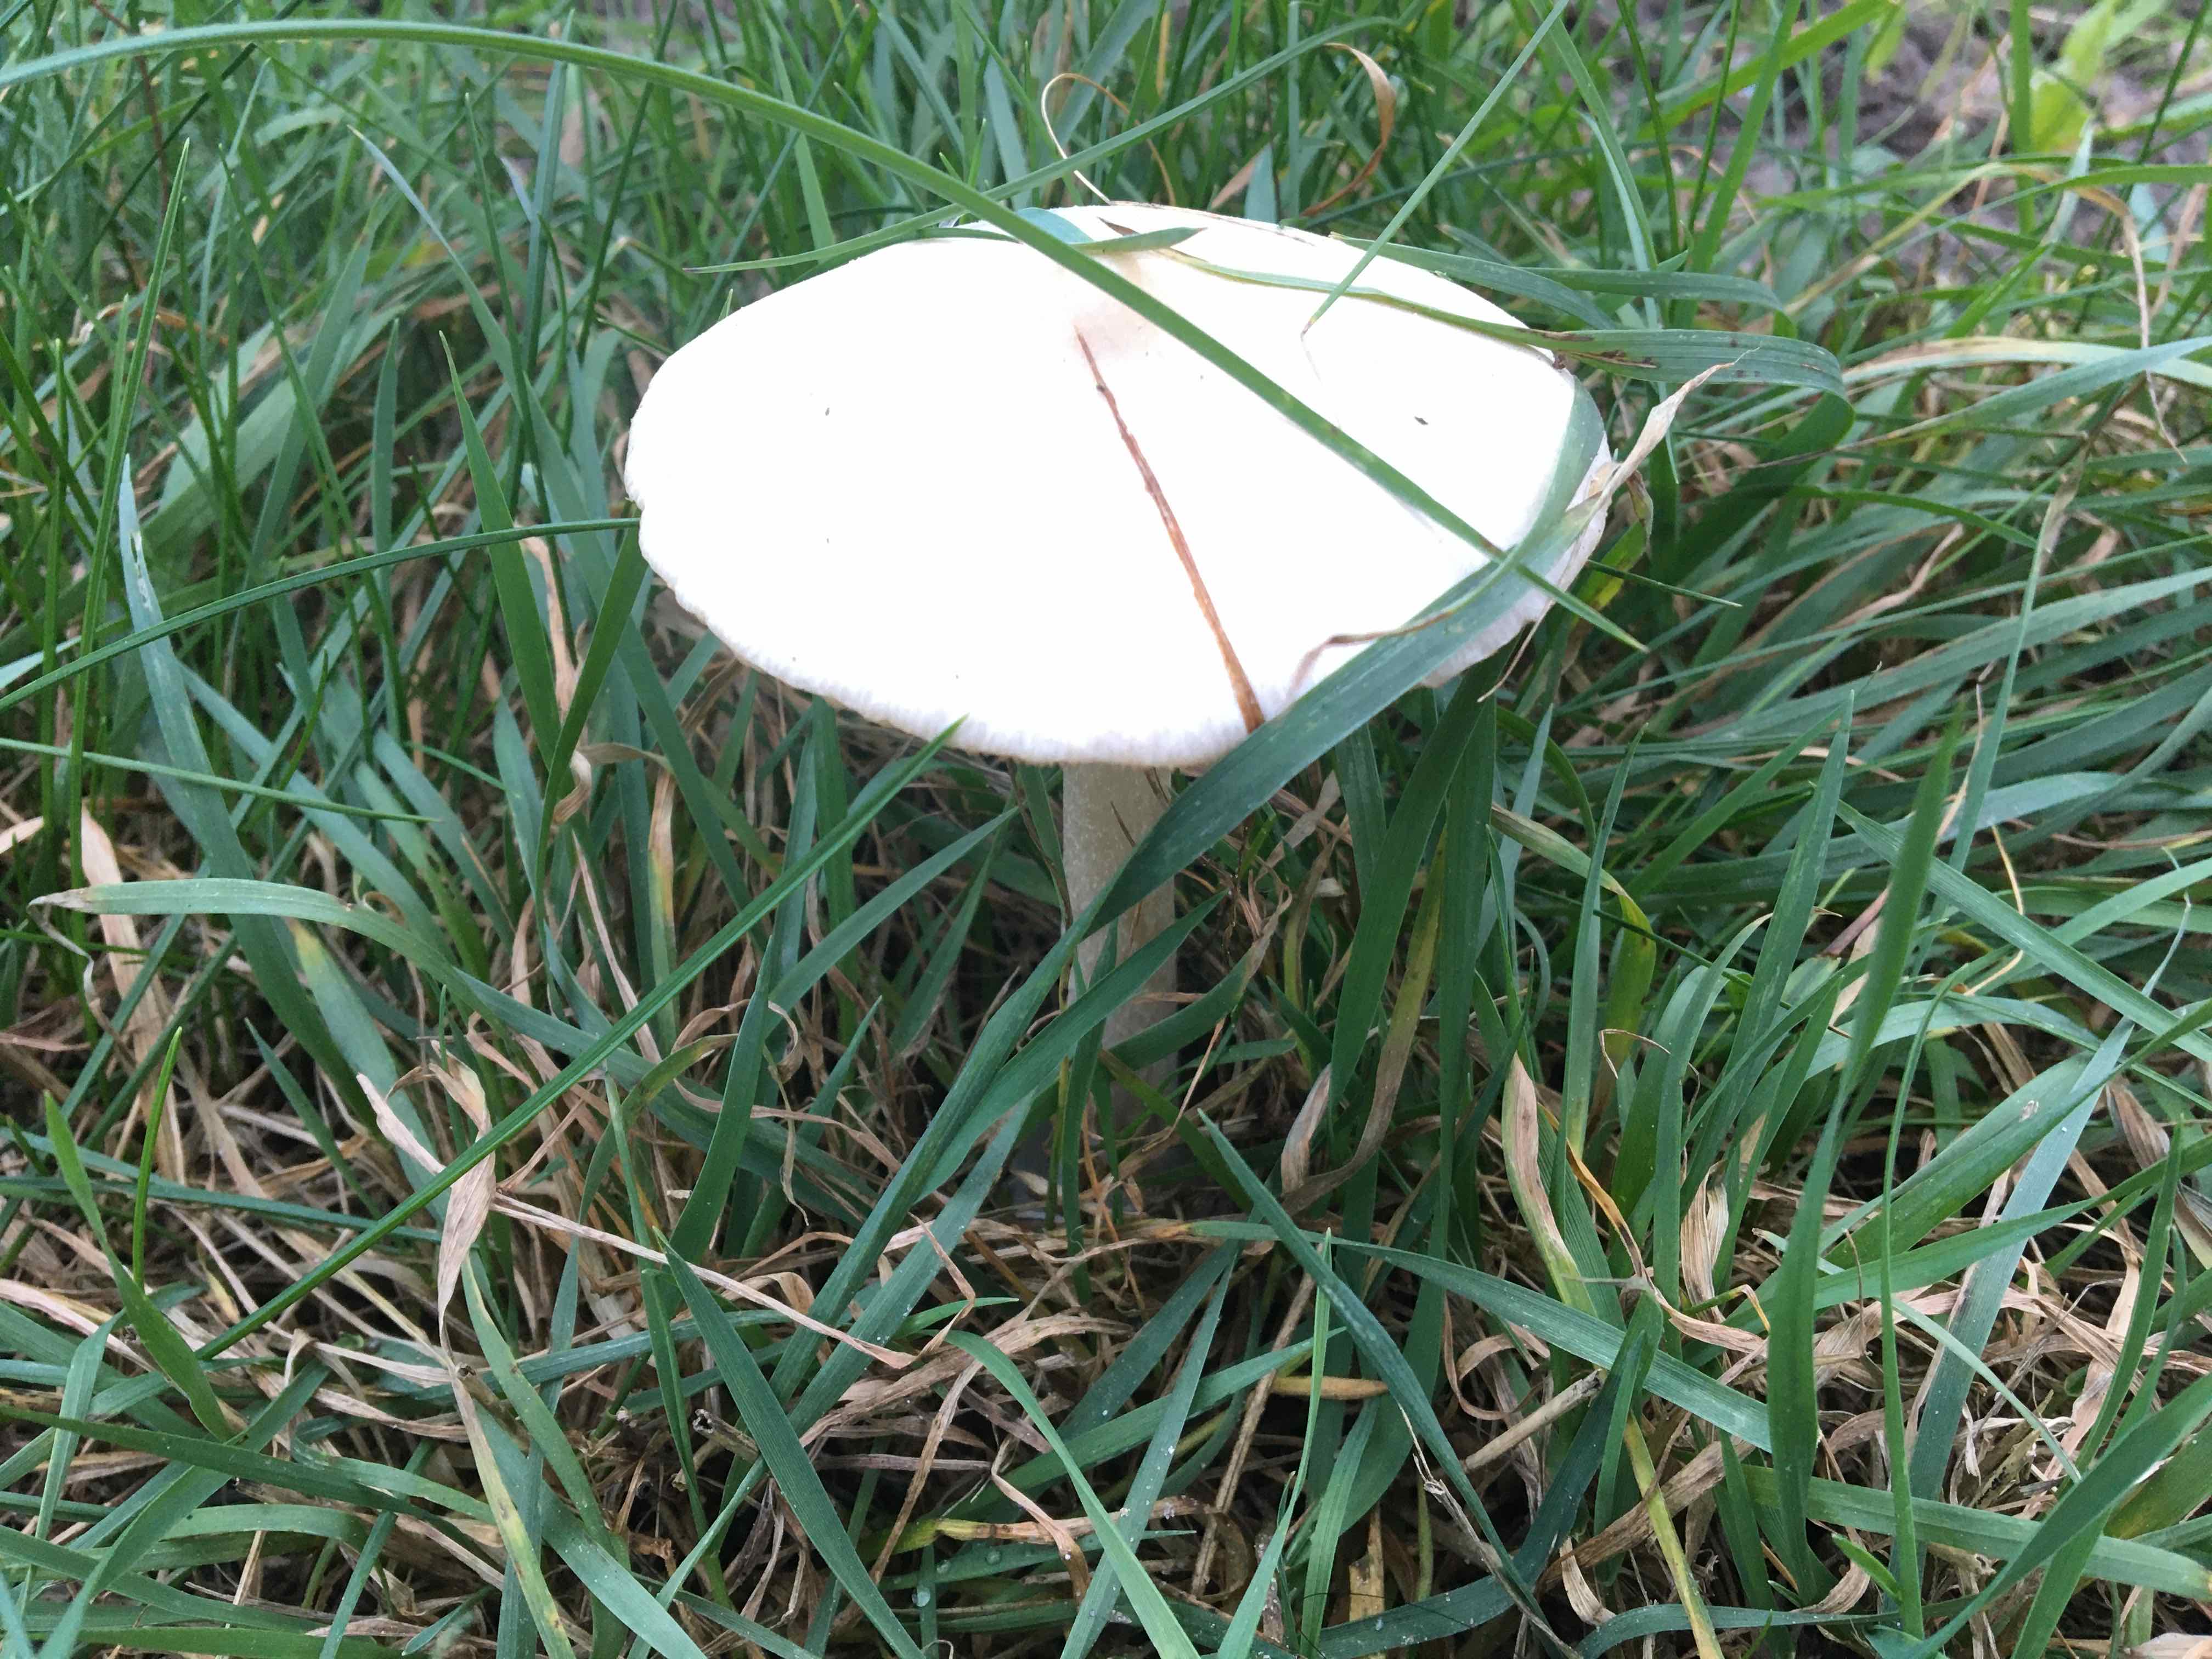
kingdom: Fungi
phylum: Basidiomycota
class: Agaricomycetes
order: Agaricales
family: Pluteaceae
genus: Volvopluteus
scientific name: Volvopluteus gloiocephalus
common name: høj posesvamp
